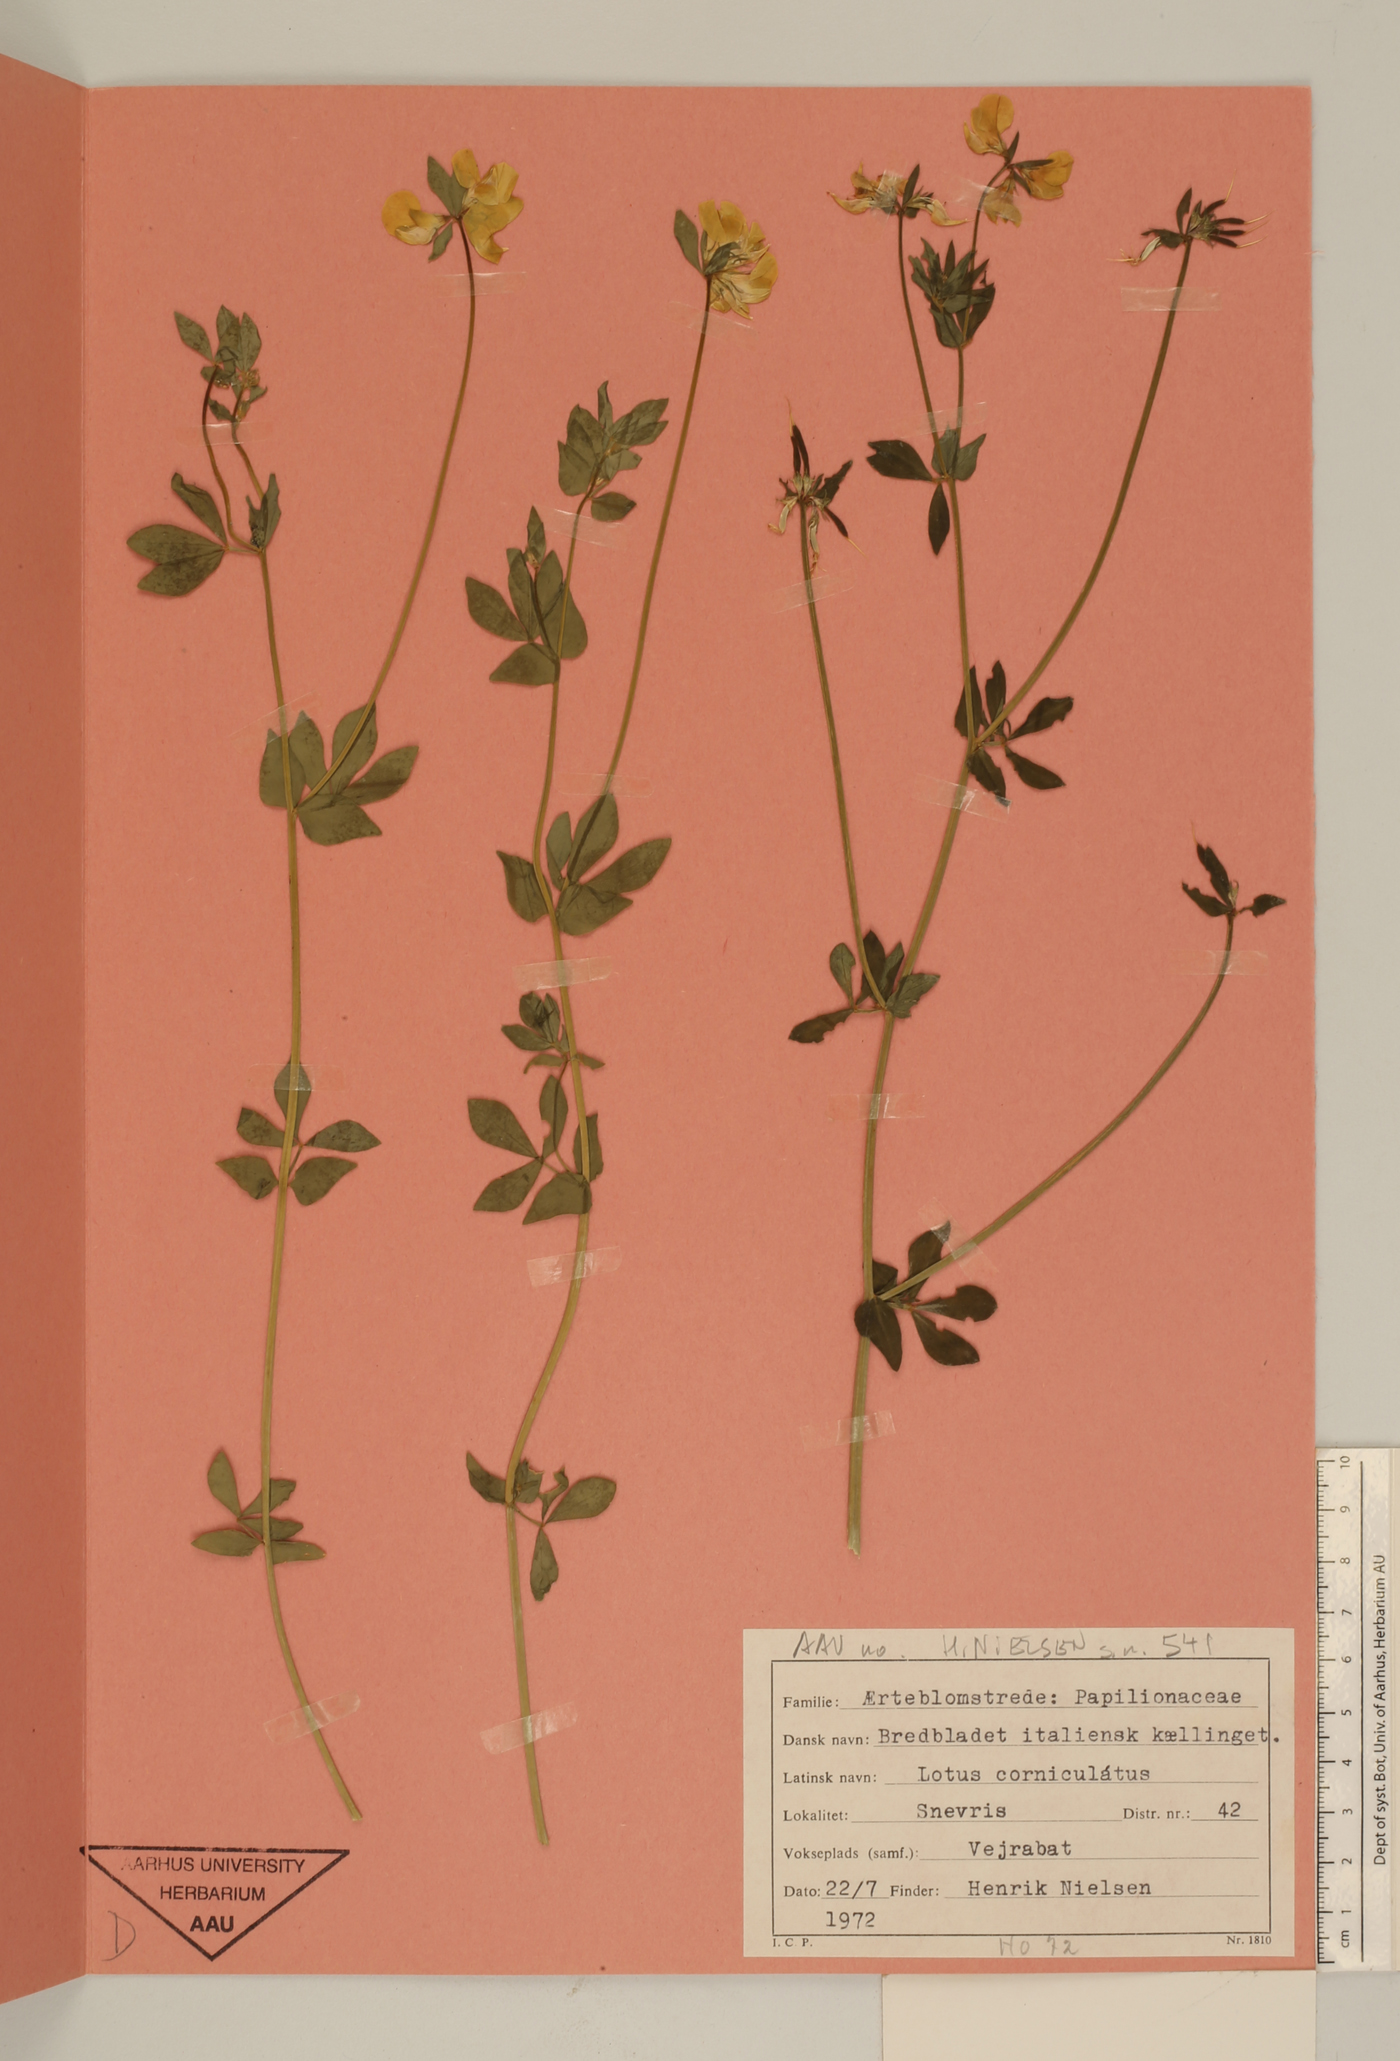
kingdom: Plantae
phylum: Tracheophyta
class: Magnoliopsida
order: Fabales
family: Fabaceae
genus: Lotus
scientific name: Lotus corniculatus
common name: Common bird's-foot-trefoil
